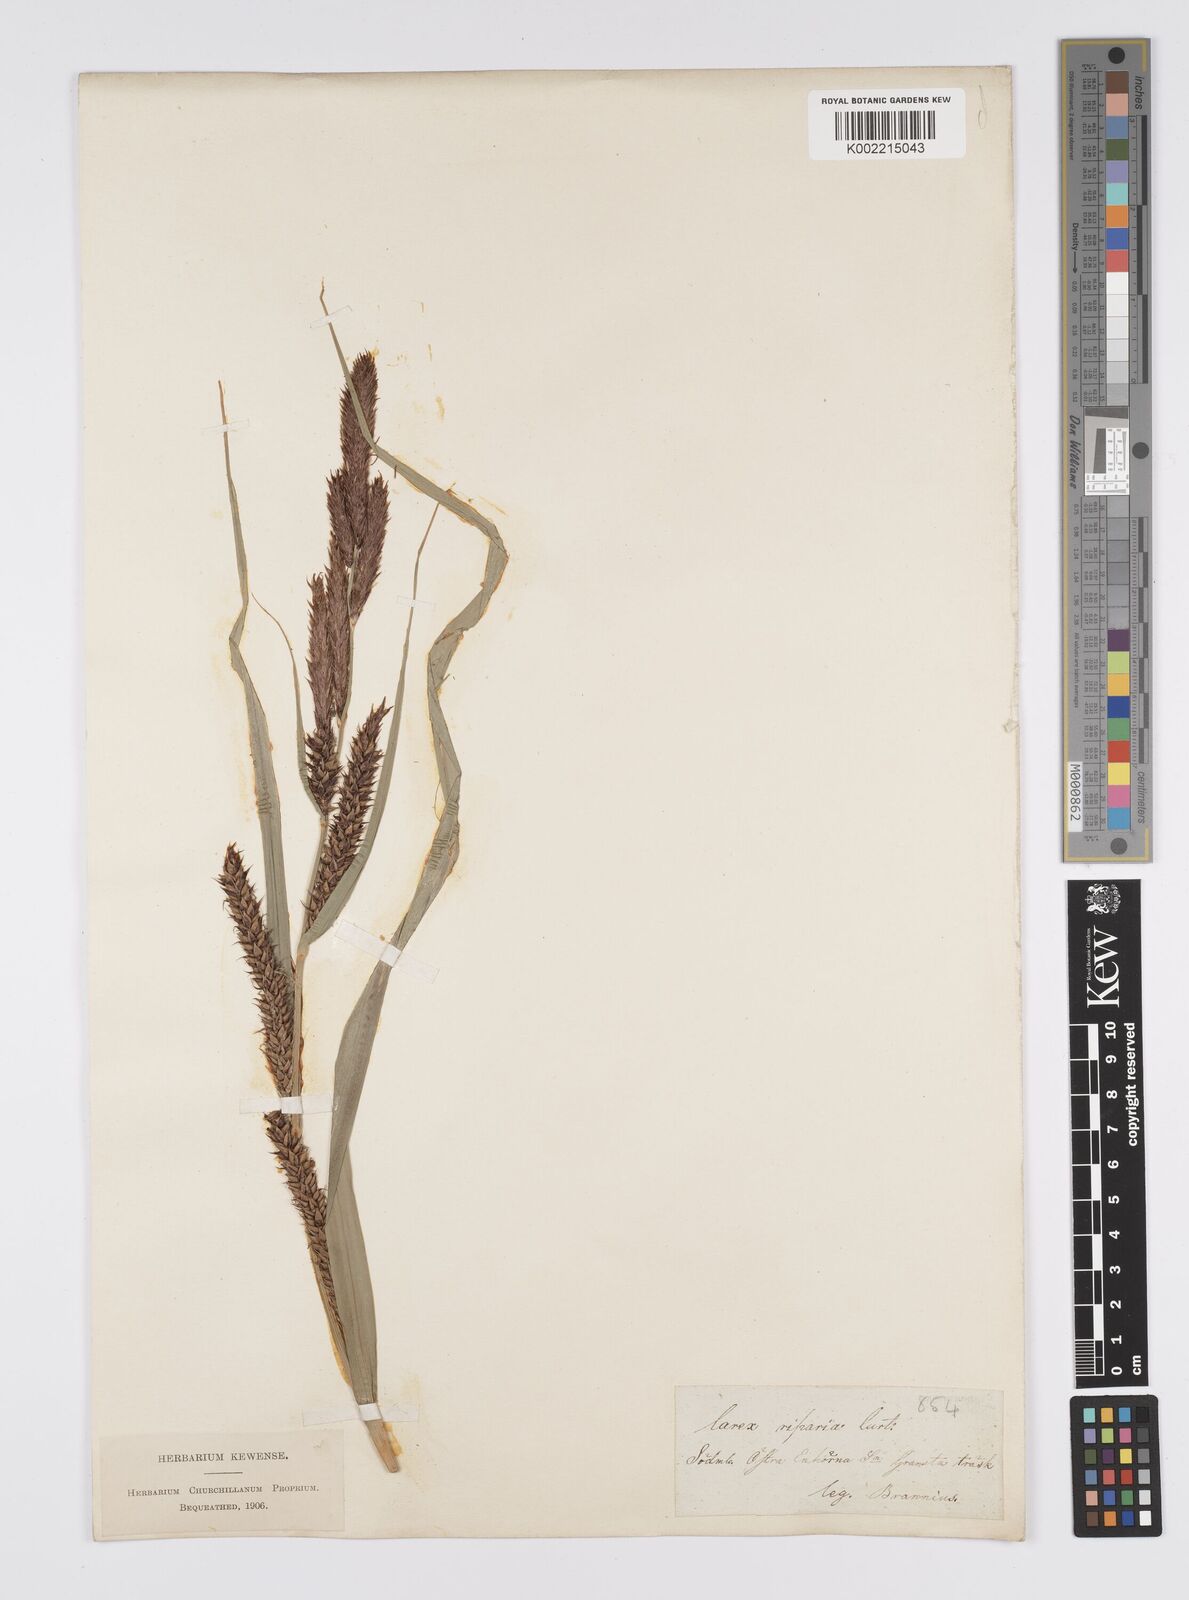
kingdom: Plantae
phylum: Tracheophyta
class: Liliopsida
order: Poales
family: Cyperaceae
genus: Carex
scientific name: Carex riparia
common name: Greater pond-sedge
